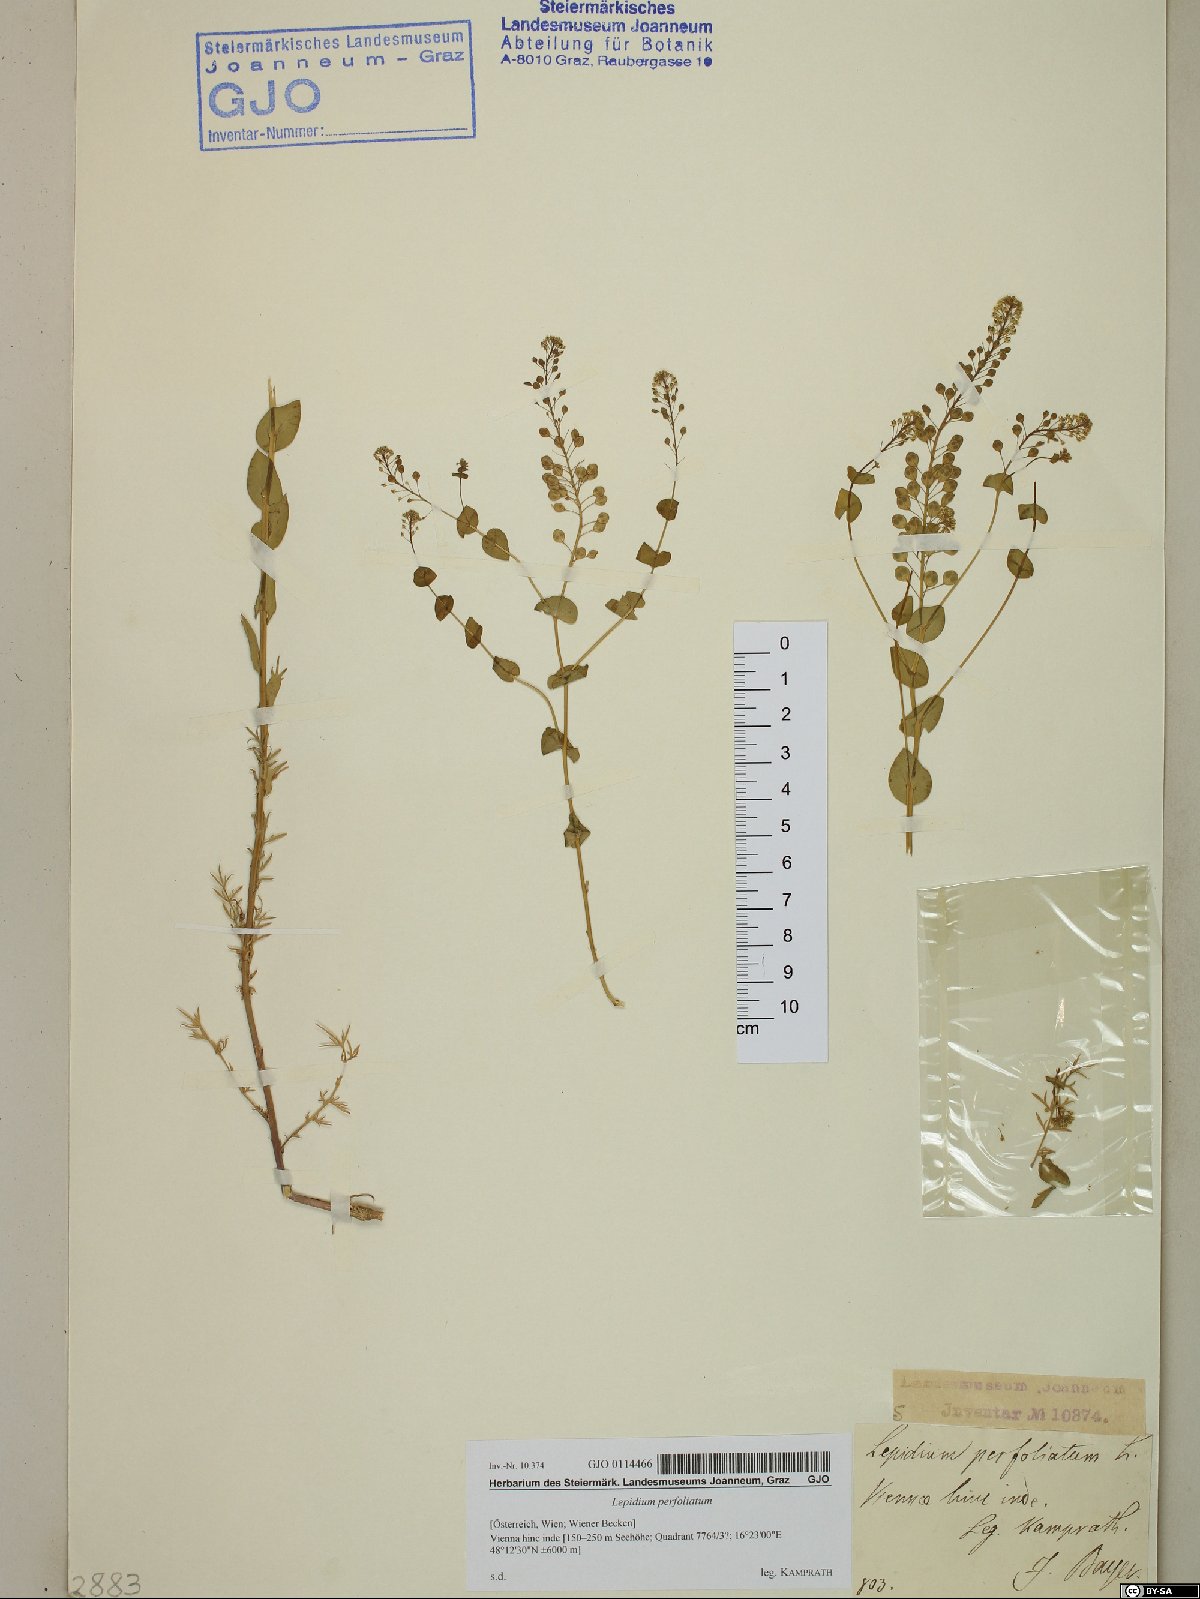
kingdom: Plantae
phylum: Tracheophyta
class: Magnoliopsida
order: Brassicales
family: Brassicaceae
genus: Lepidium
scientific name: Lepidium perfoliatum
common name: Perfoliate pepperwort
